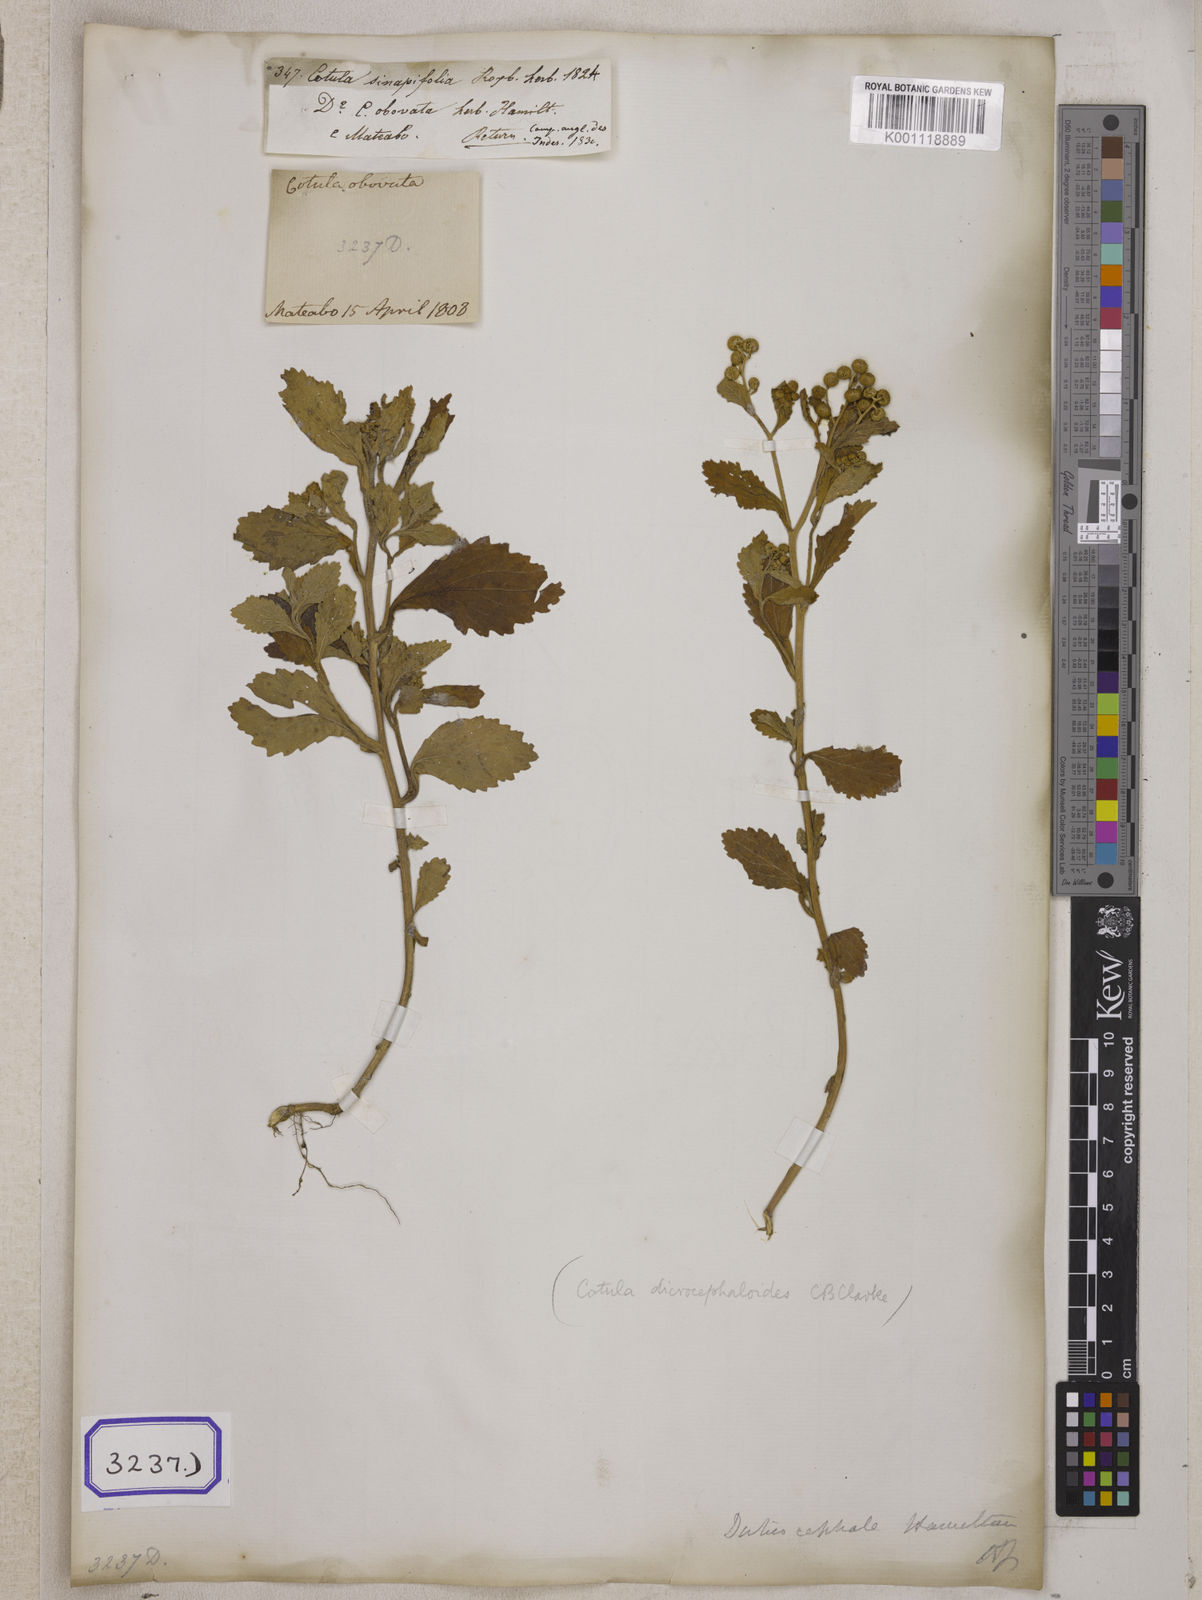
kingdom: Plantae
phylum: Tracheophyta
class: Magnoliopsida
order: Asterales
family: Asteraceae
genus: Thespis
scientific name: Thespis divaricata
